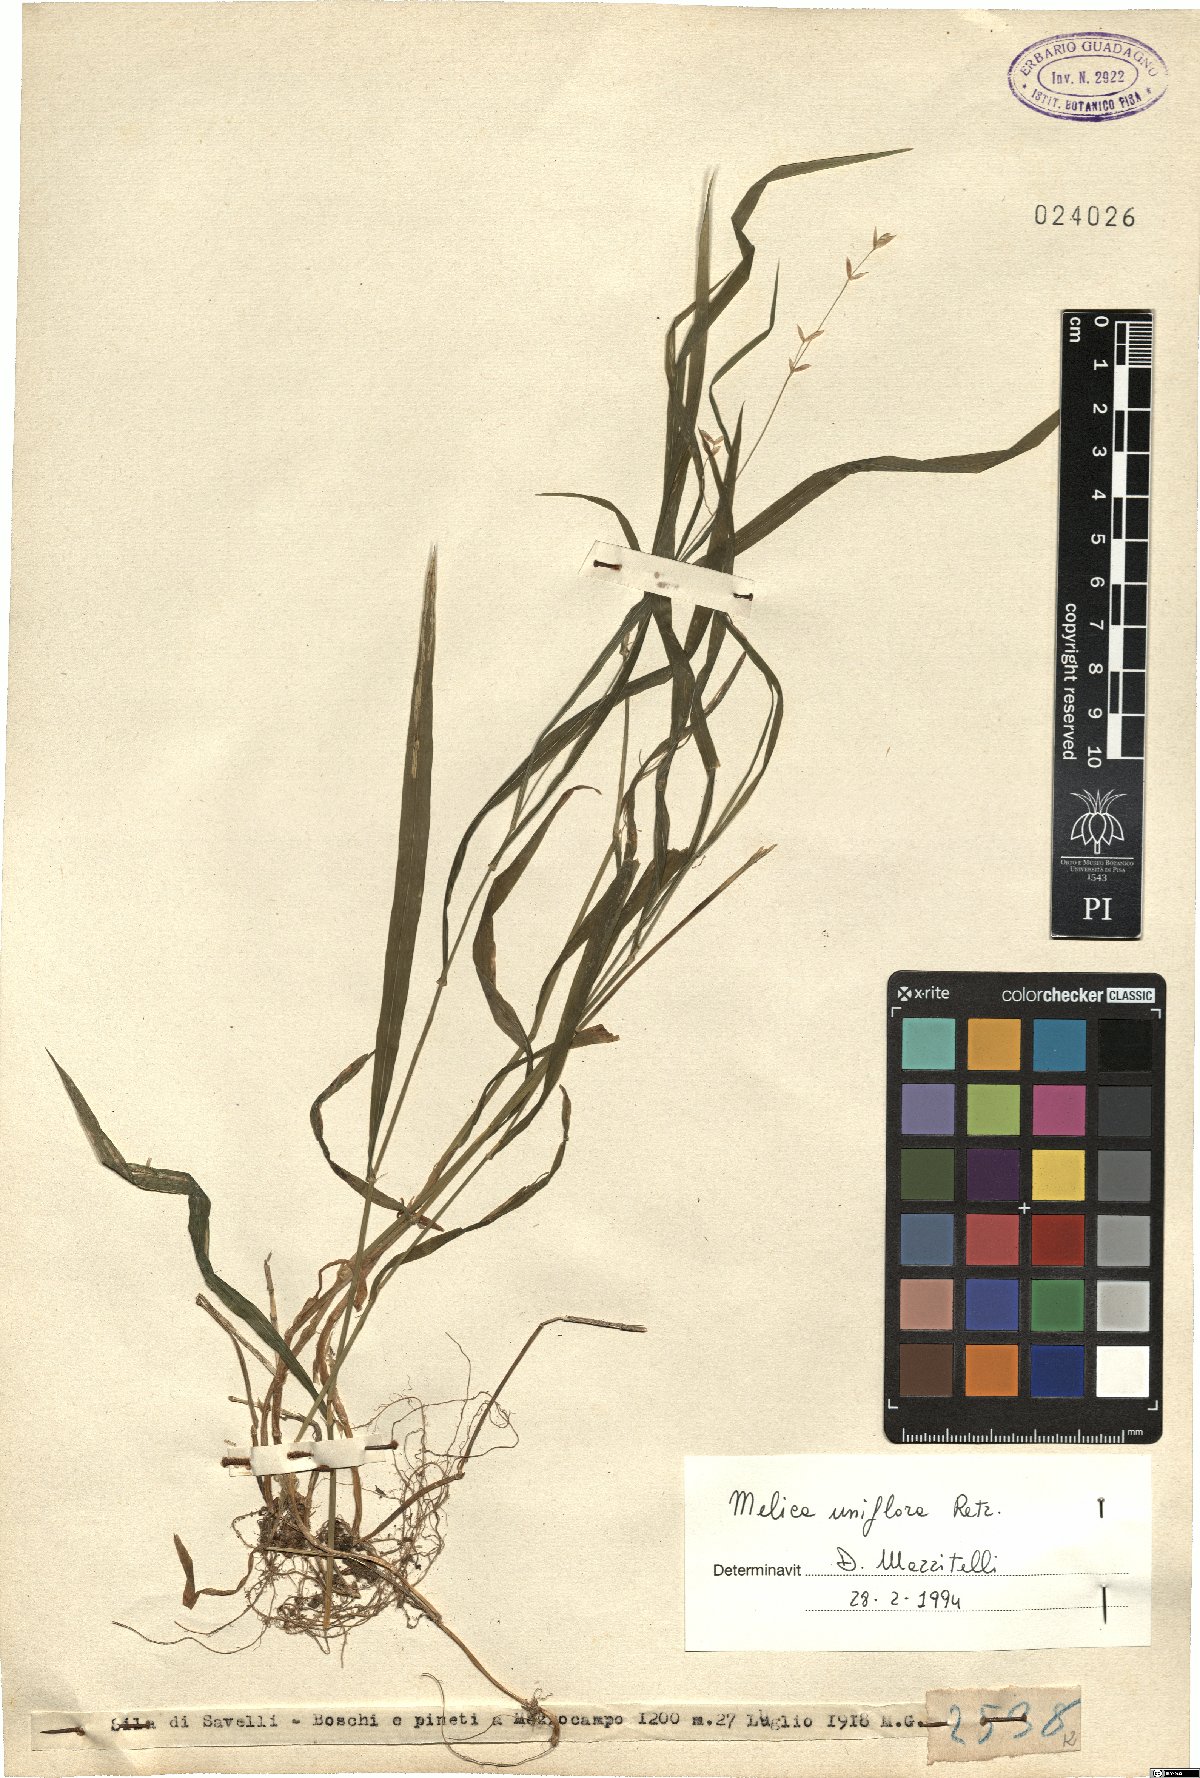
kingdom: Plantae
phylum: Tracheophyta
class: Liliopsida
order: Poales
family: Poaceae
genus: Melica
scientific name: Melica uniflora
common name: Wood melick
